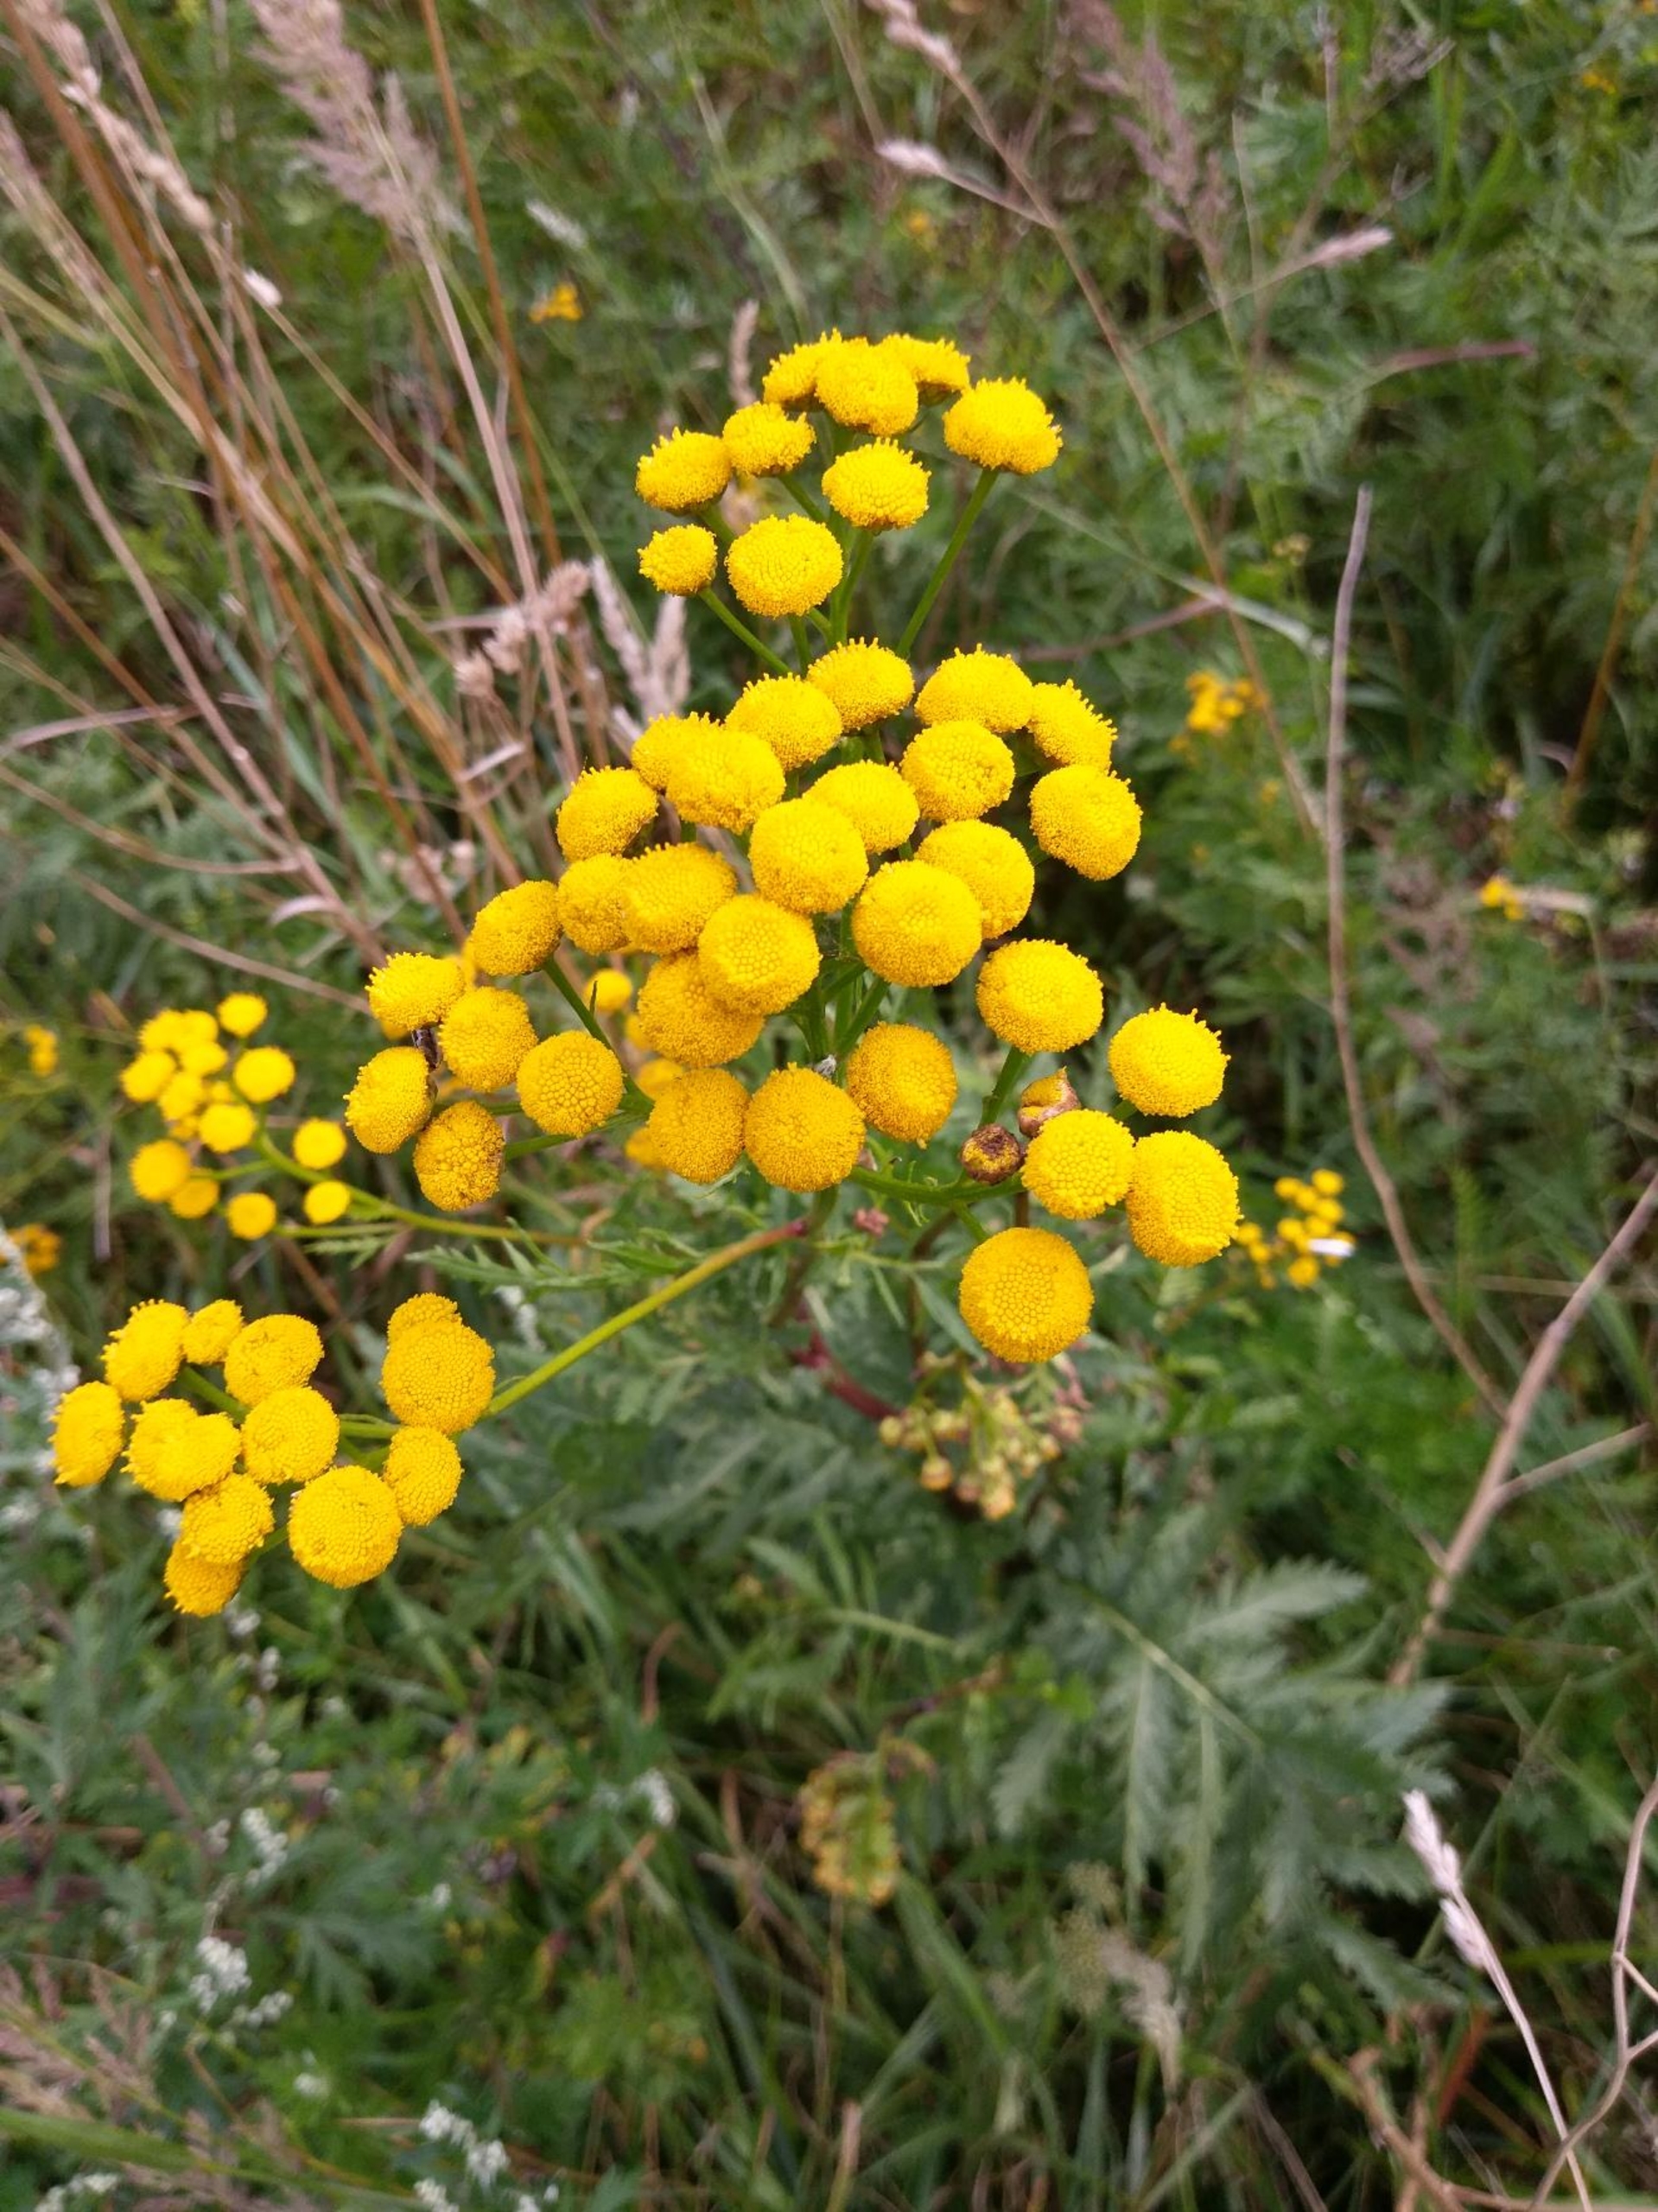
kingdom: Plantae
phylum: Tracheophyta
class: Magnoliopsida
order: Asterales
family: Asteraceae
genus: Tanacetum
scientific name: Tanacetum vulgare
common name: Rejnfan
